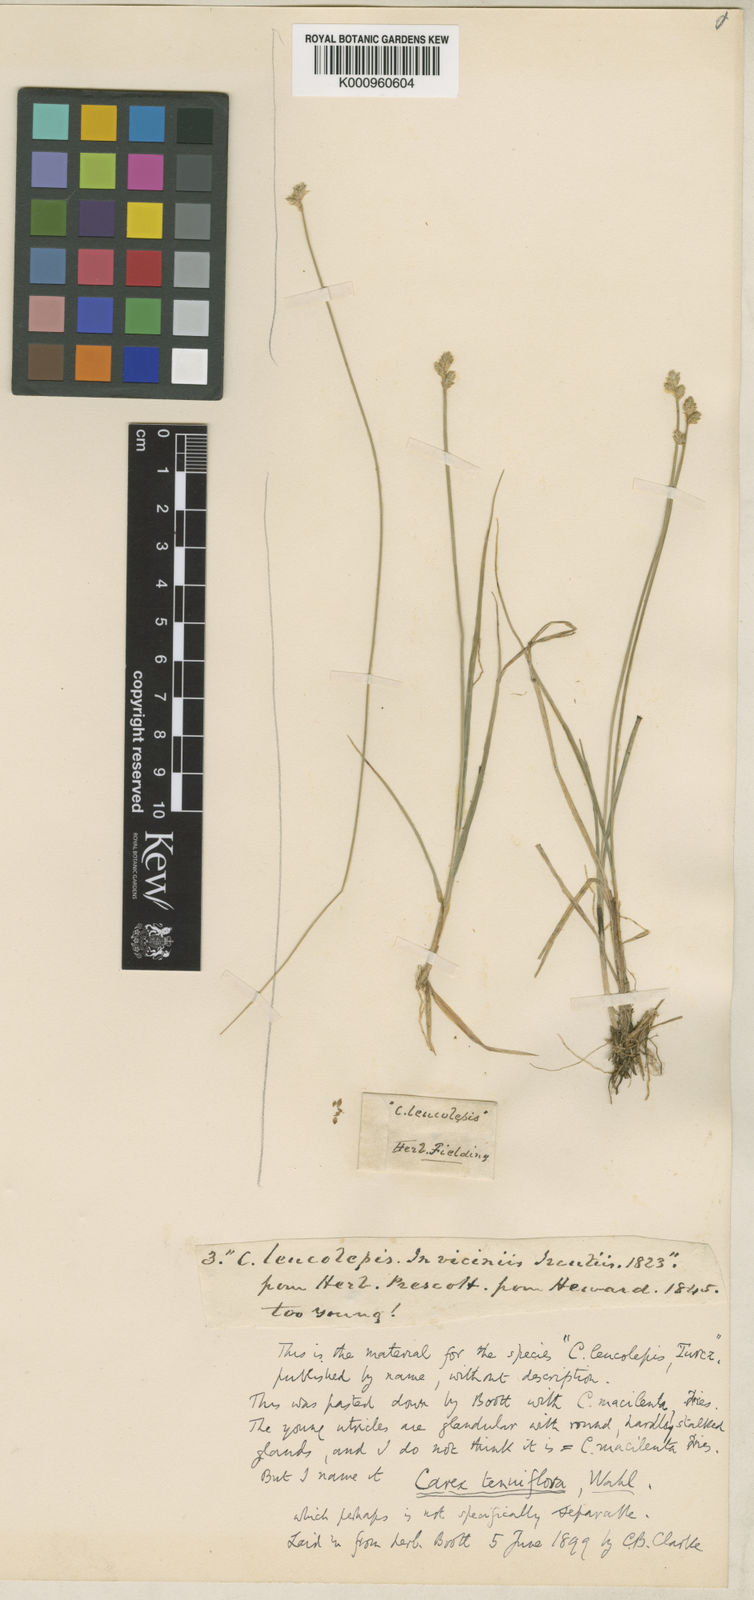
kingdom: Plantae
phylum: Tracheophyta
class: Liliopsida
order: Poales
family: Cyperaceae
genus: Carex
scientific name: Carex tenuiflora
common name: Sparse-flowered sedge
